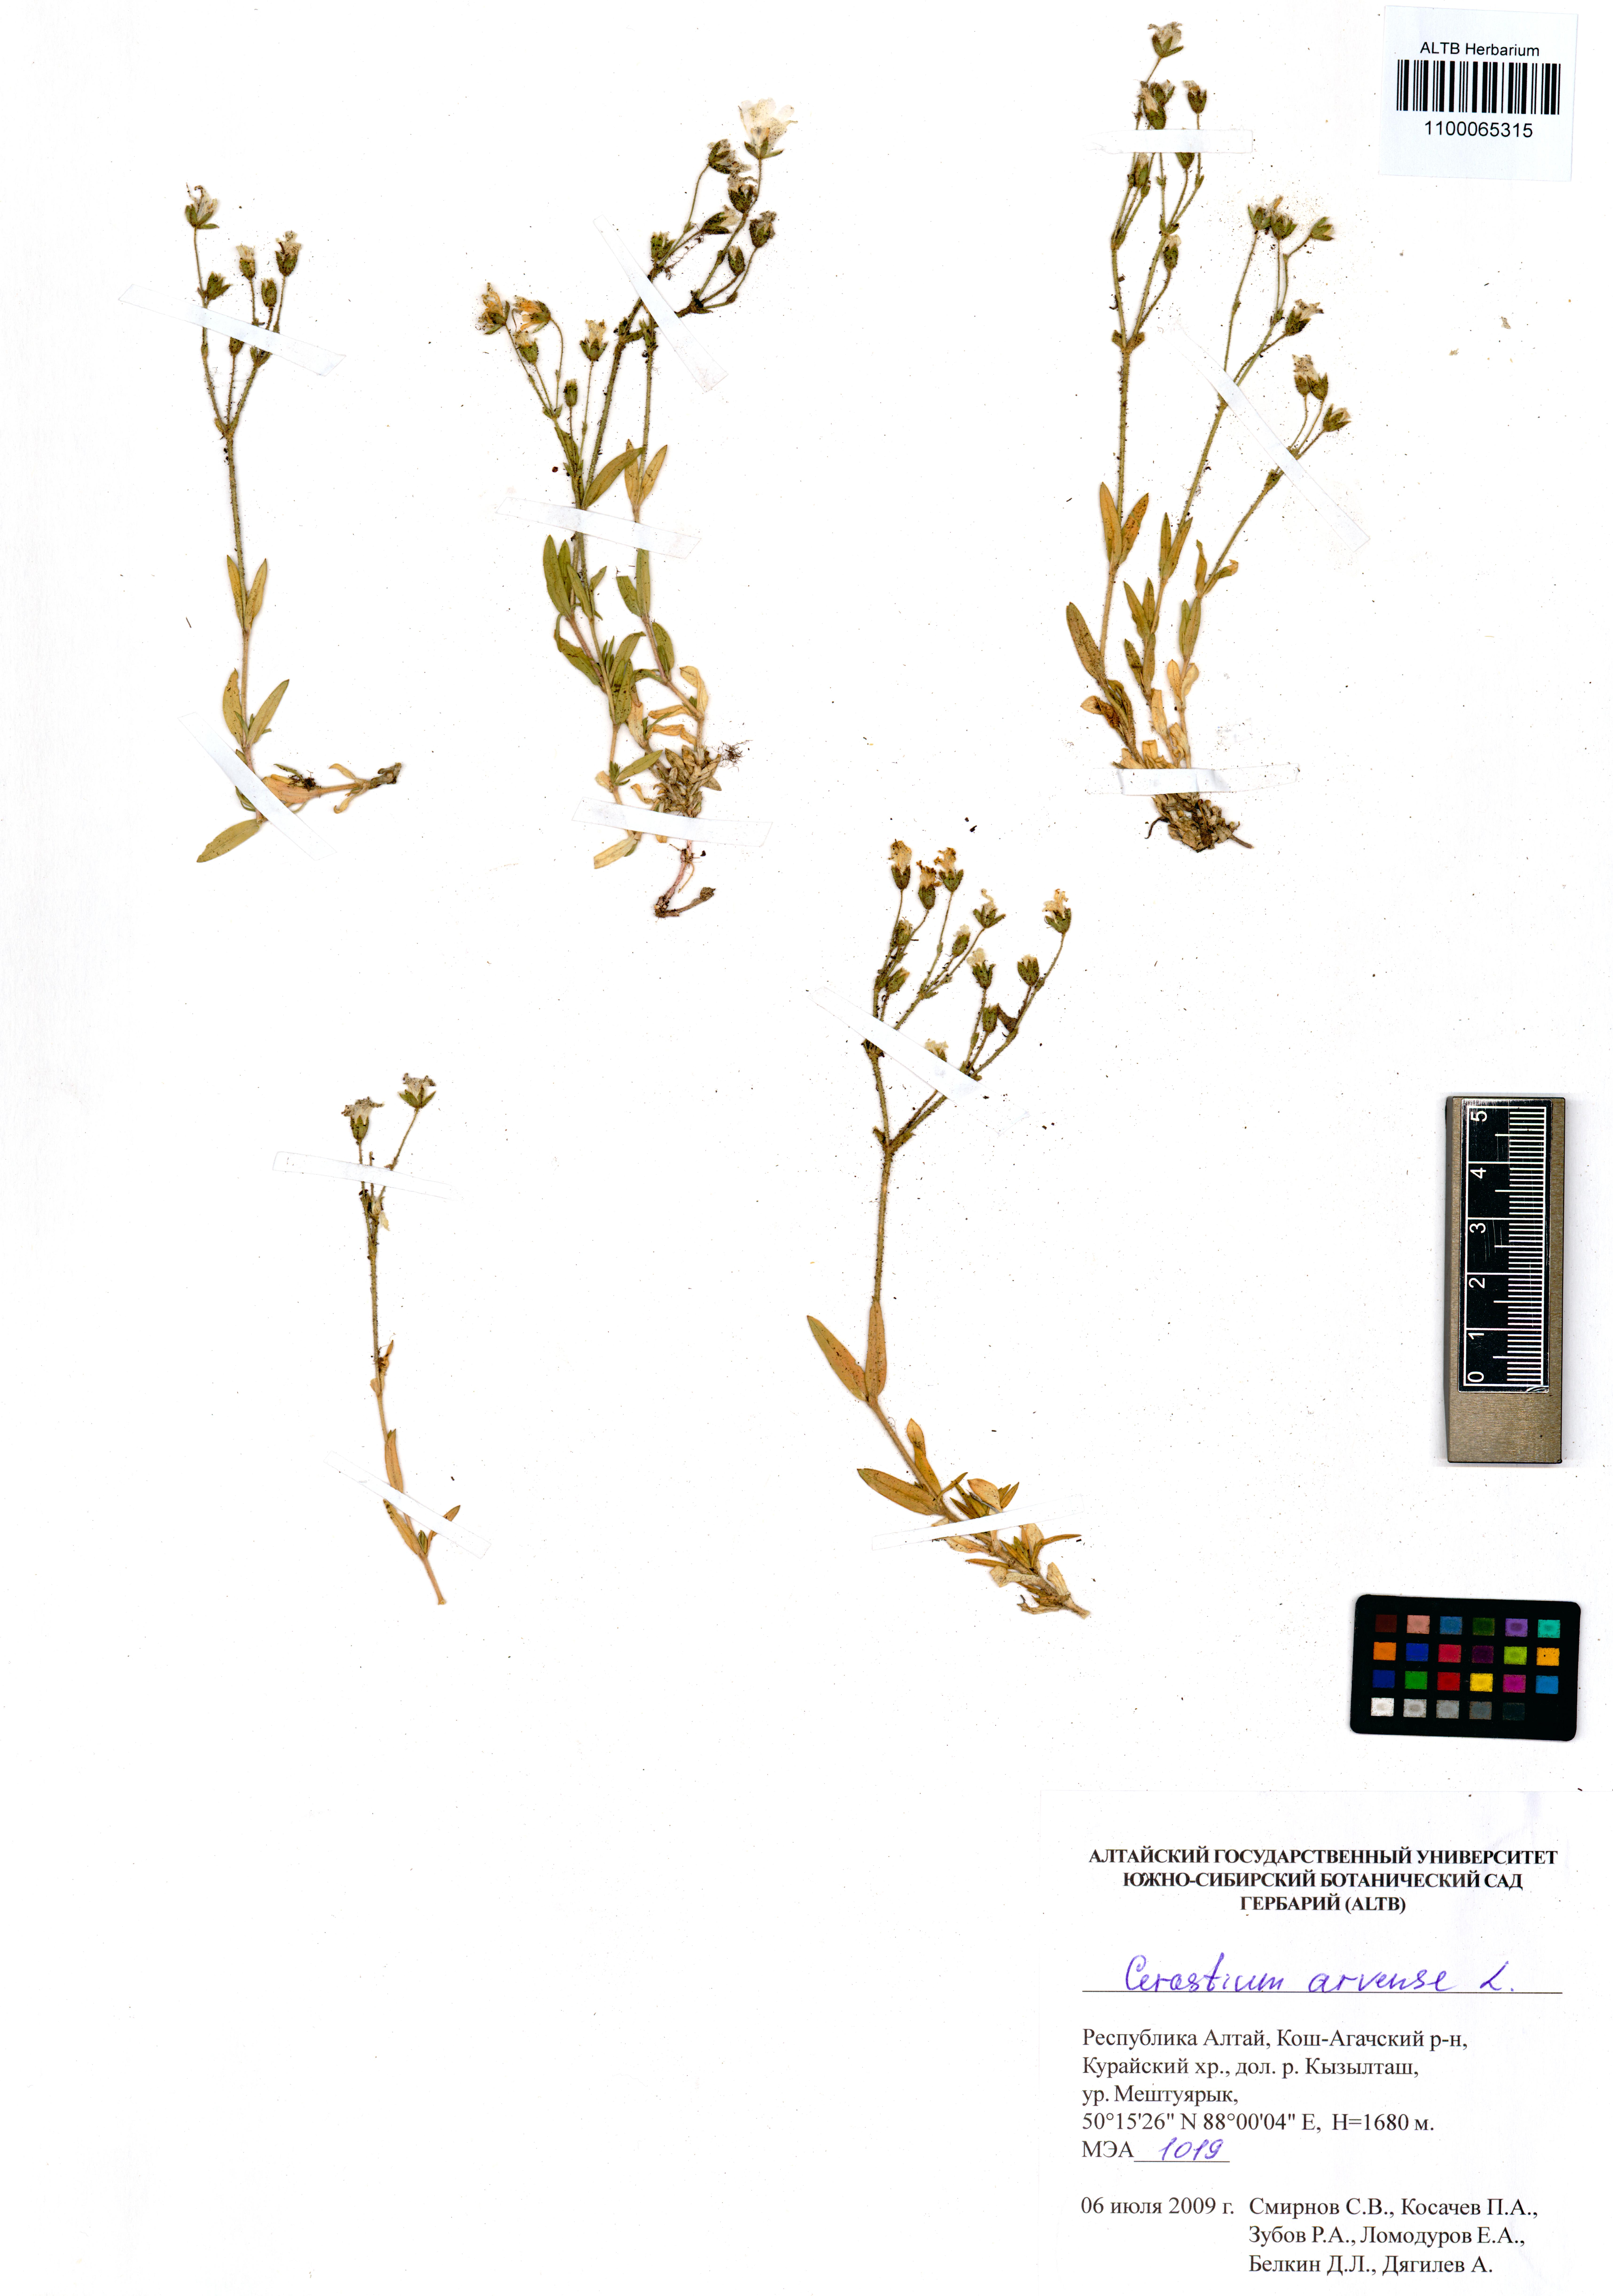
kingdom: Plantae
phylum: Tracheophyta
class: Magnoliopsida
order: Caryophyllales
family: Caryophyllaceae
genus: Cerastium
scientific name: Cerastium arvense
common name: Field mouse-ear
